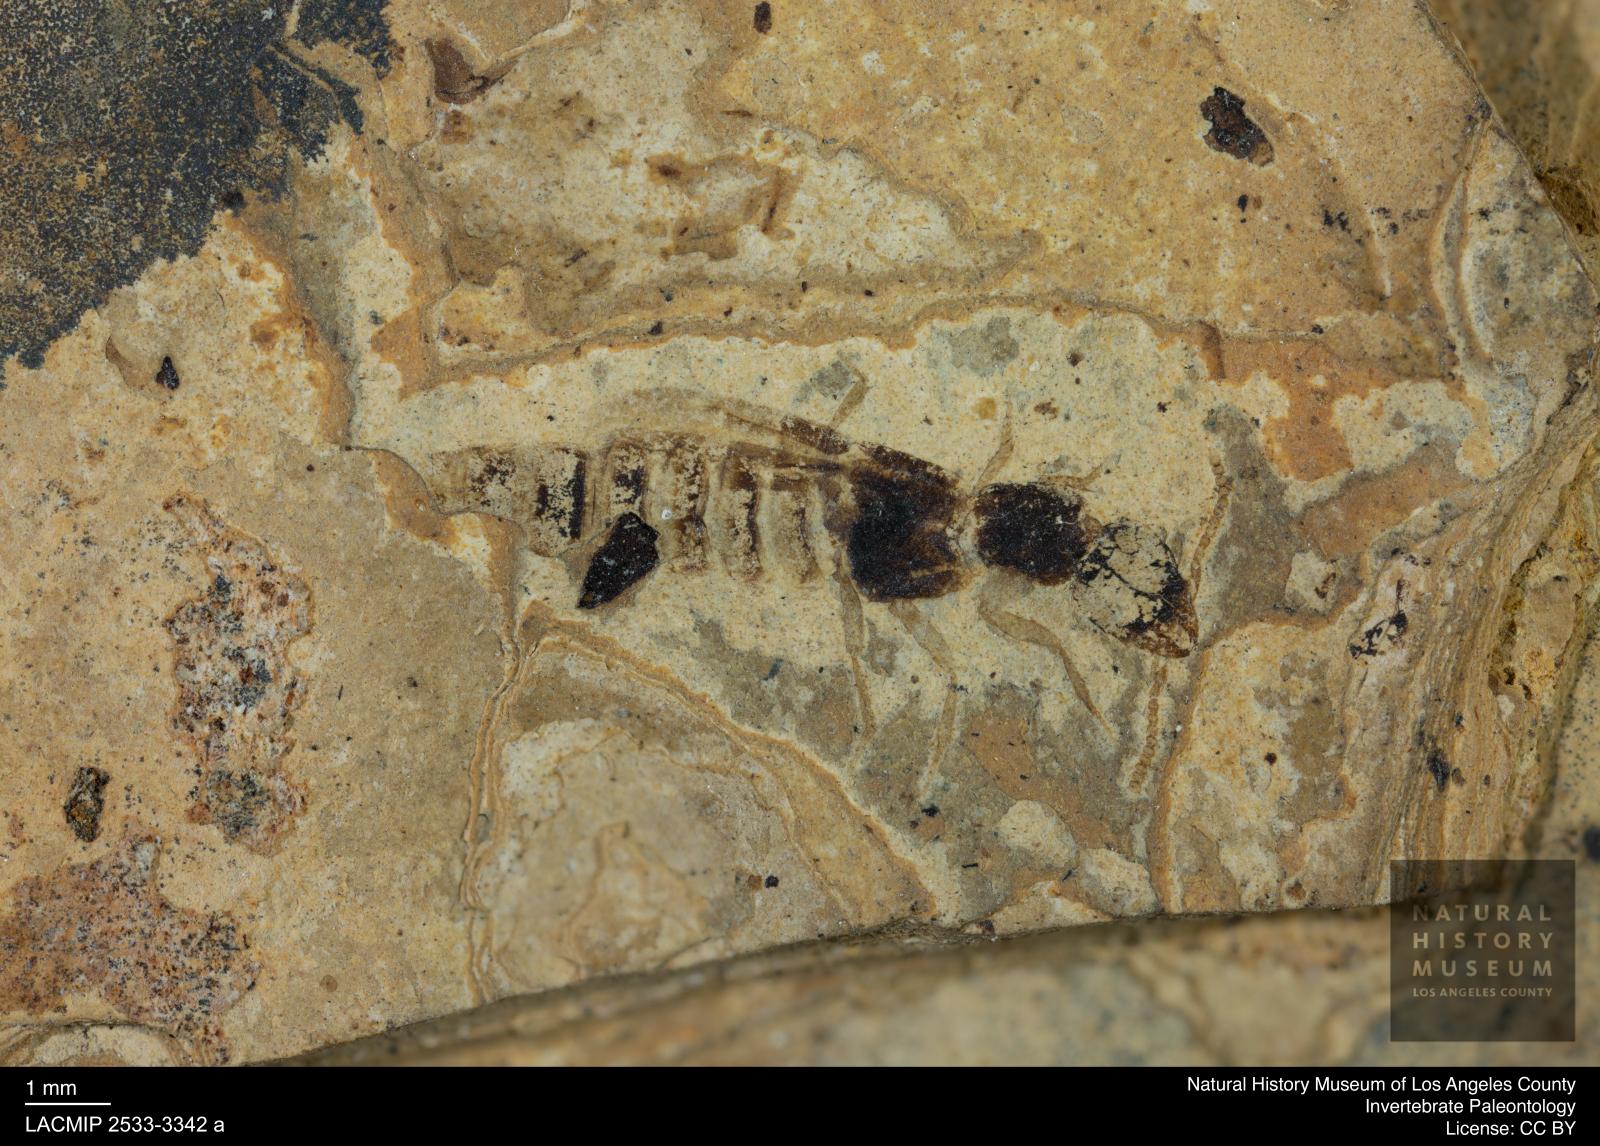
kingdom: Animalia
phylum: Arthropoda
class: Insecta
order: Coleoptera
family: Staphylinidae
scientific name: Staphylinidae
